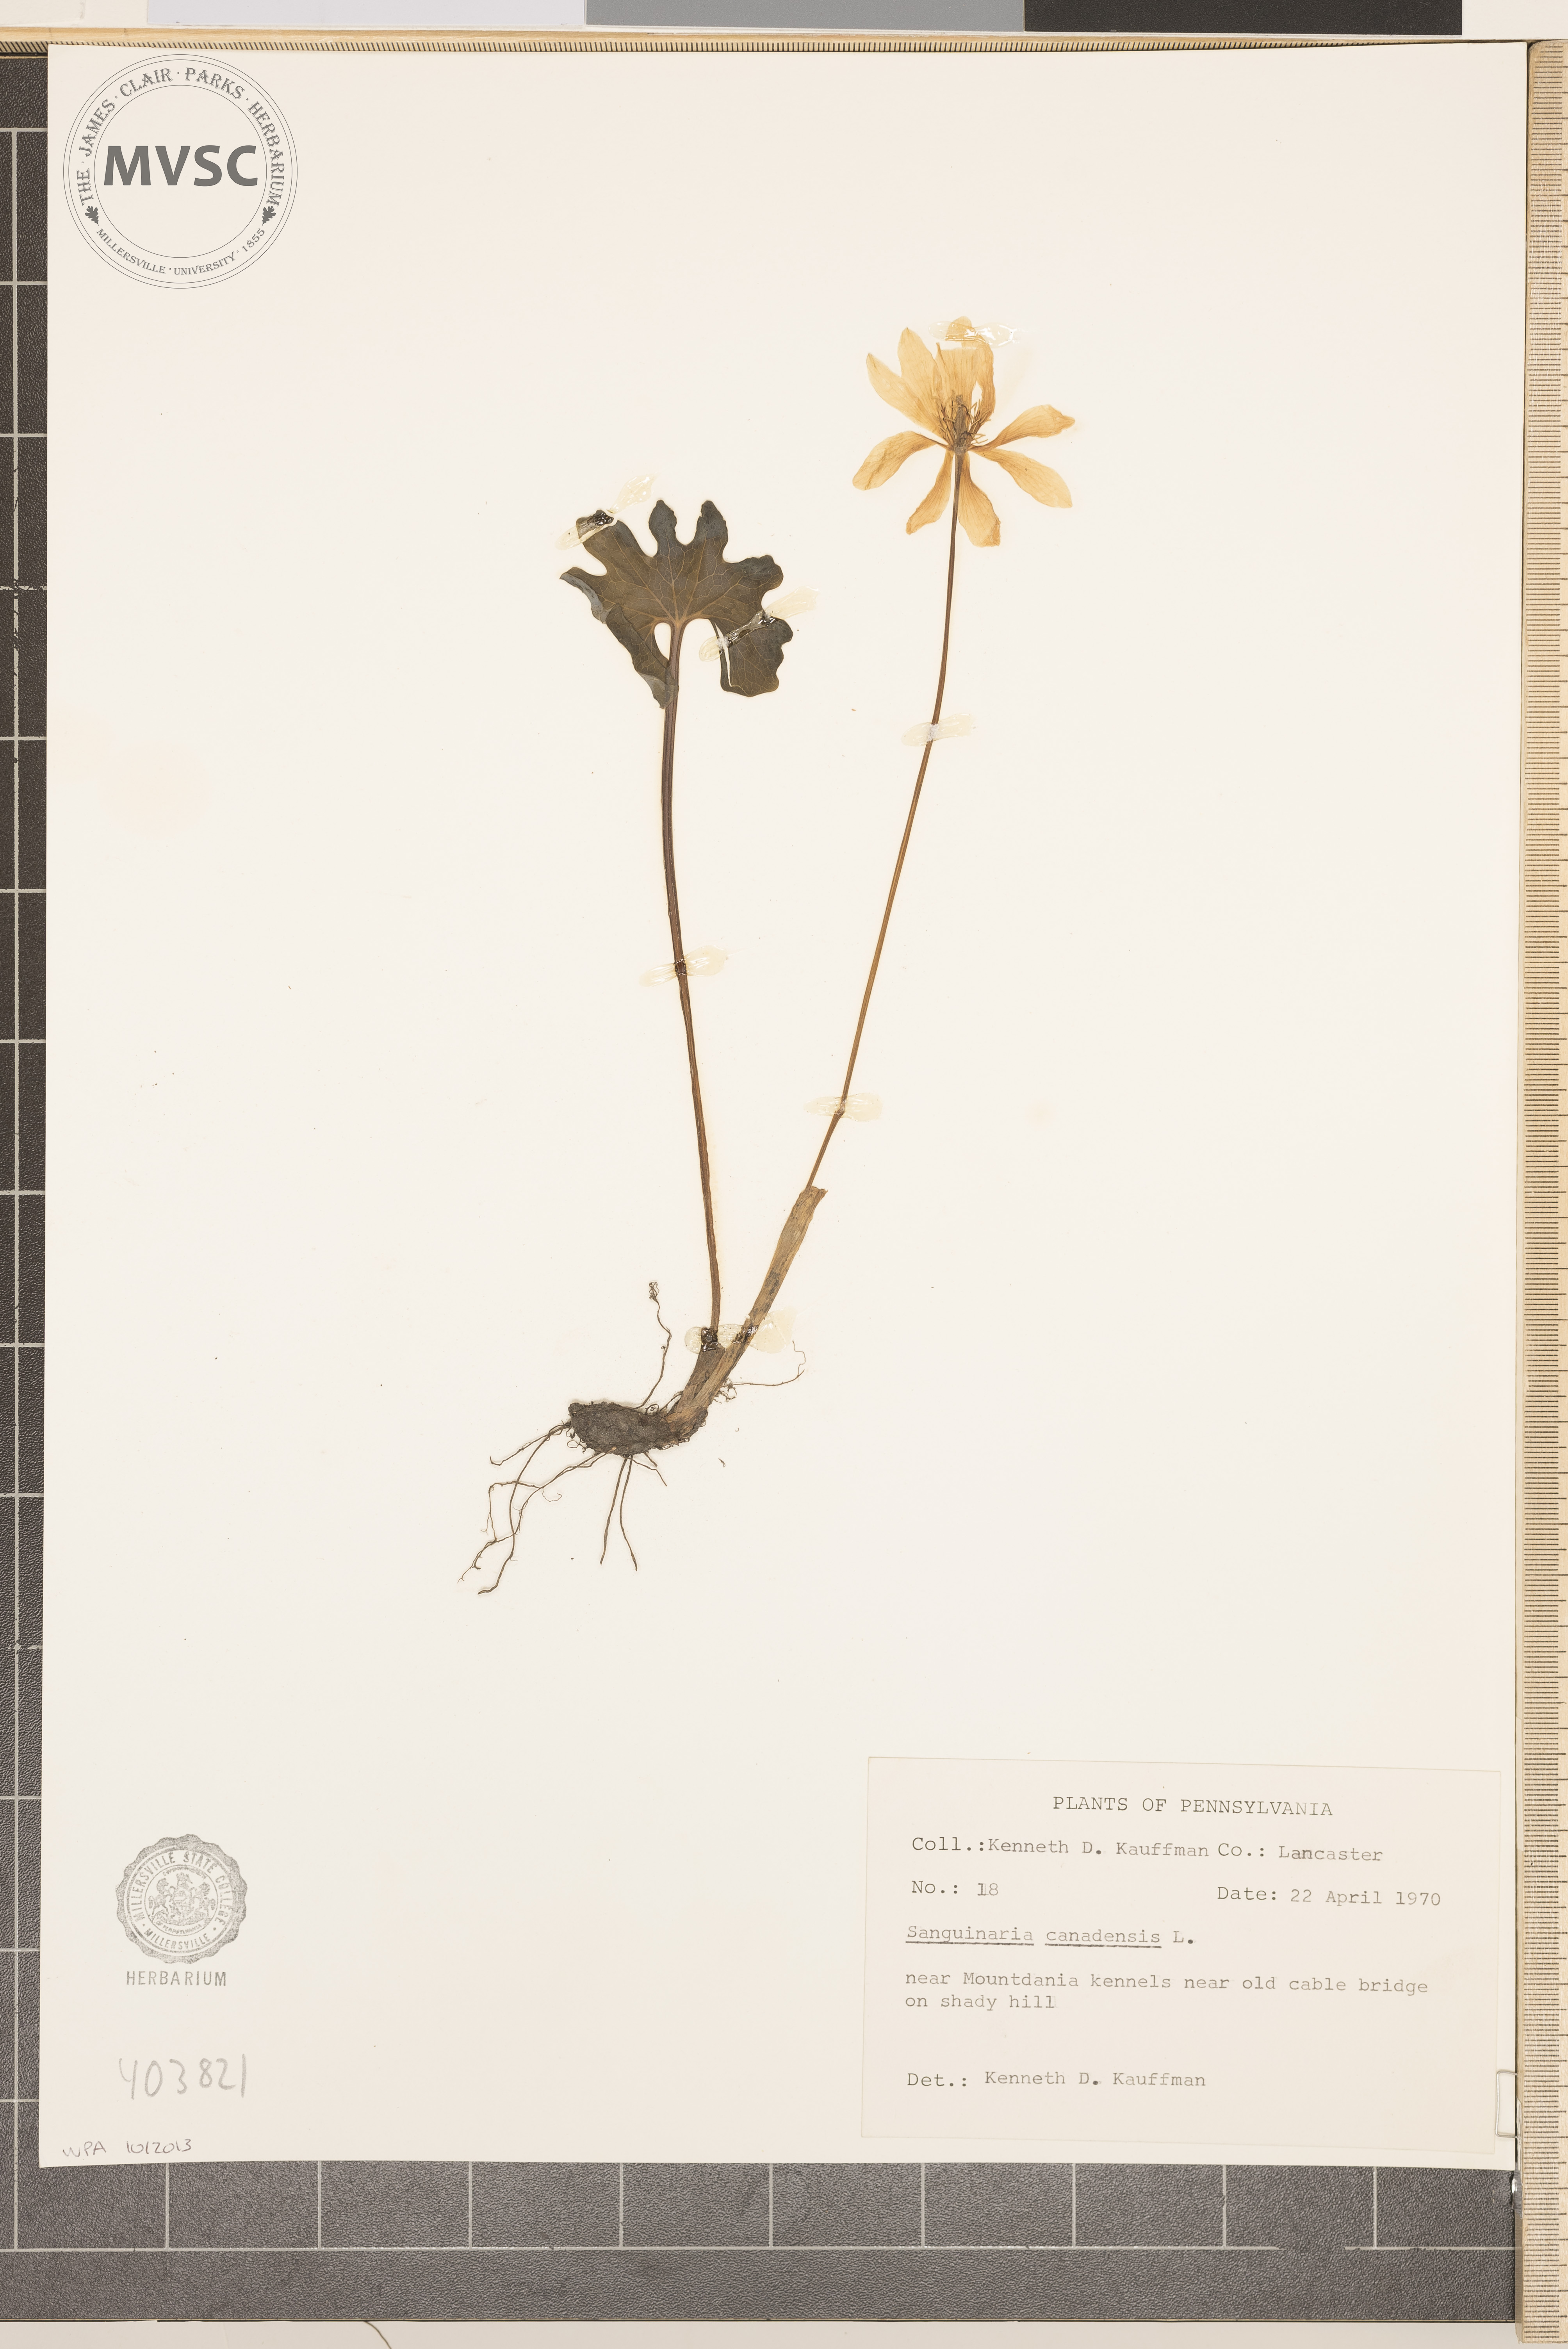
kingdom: Plantae
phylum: Tracheophyta
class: Magnoliopsida
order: Ranunculales
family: Papaveraceae
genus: Sanguinaria
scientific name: Sanguinaria canadensis
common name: Bloodroot
